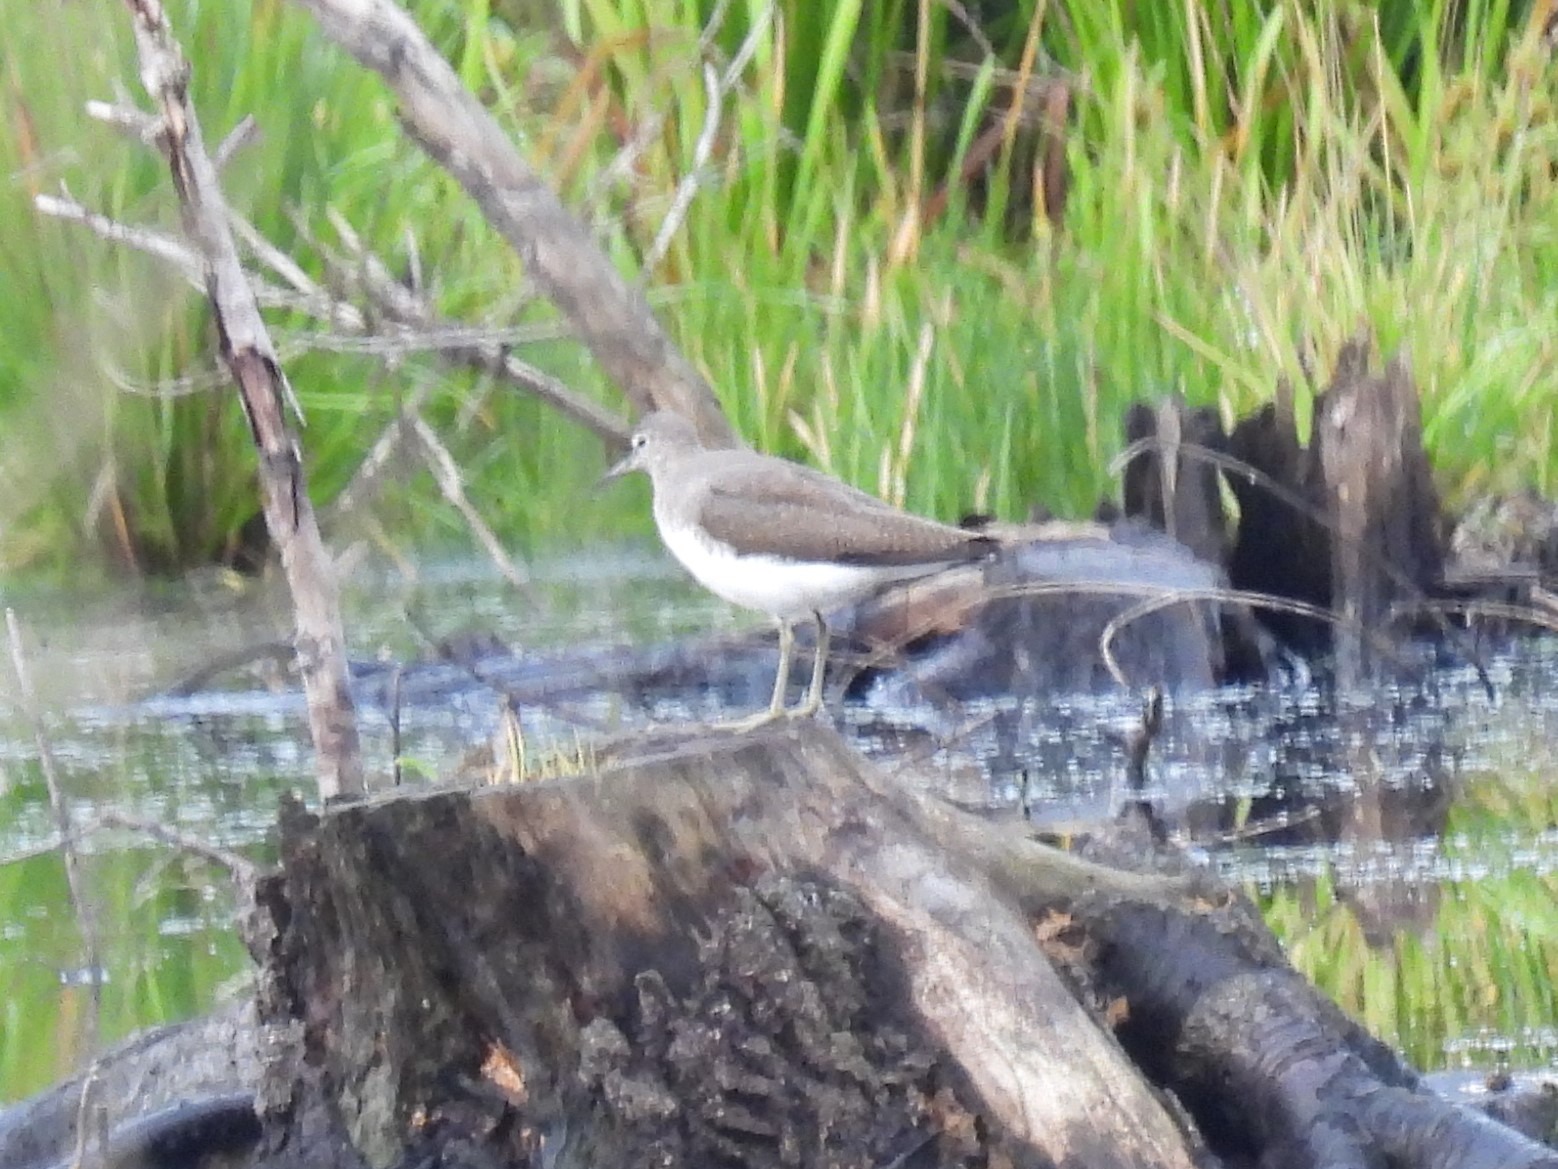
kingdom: Animalia
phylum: Chordata
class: Aves
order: Charadriiformes
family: Scolopacidae
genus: Tringa
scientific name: Tringa ochropus
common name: Svaleklire
